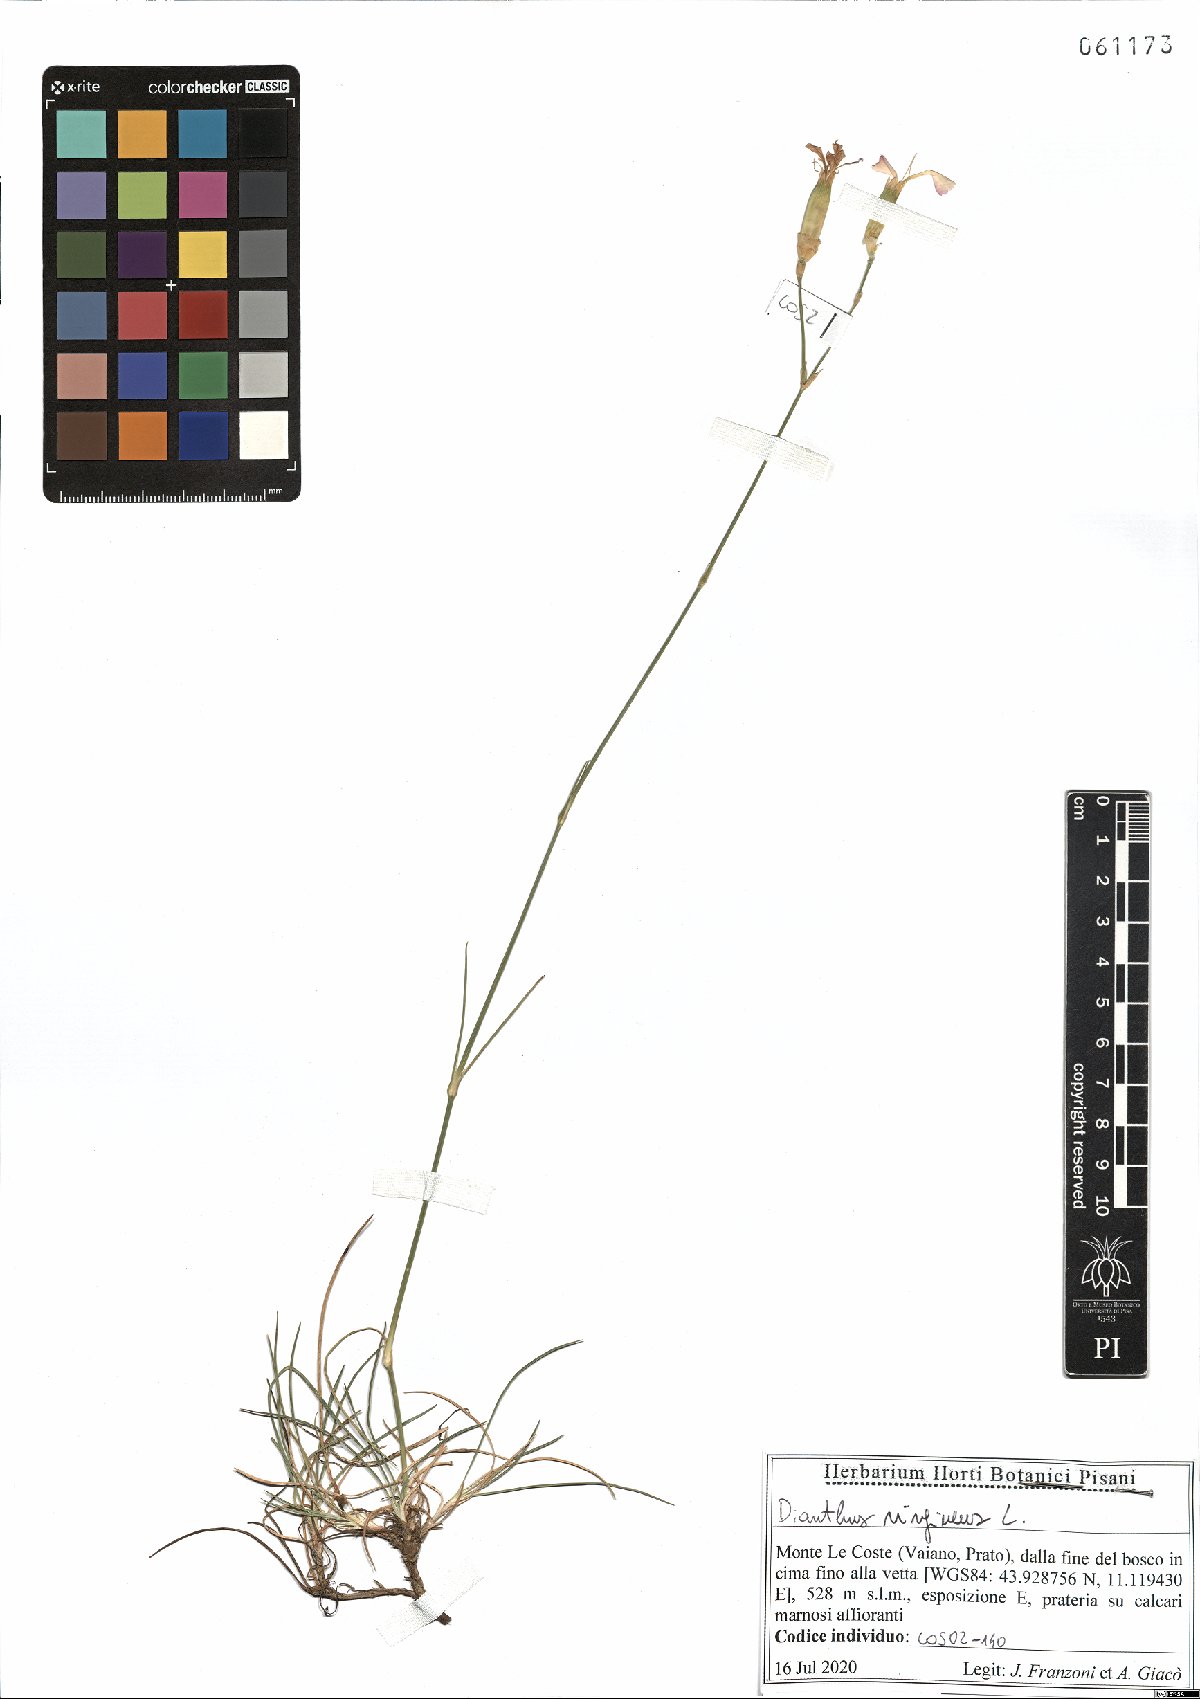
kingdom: Plantae
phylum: Tracheophyta
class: Magnoliopsida
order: Caryophyllales
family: Caryophyllaceae
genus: Dianthus
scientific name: Dianthus virgineus
